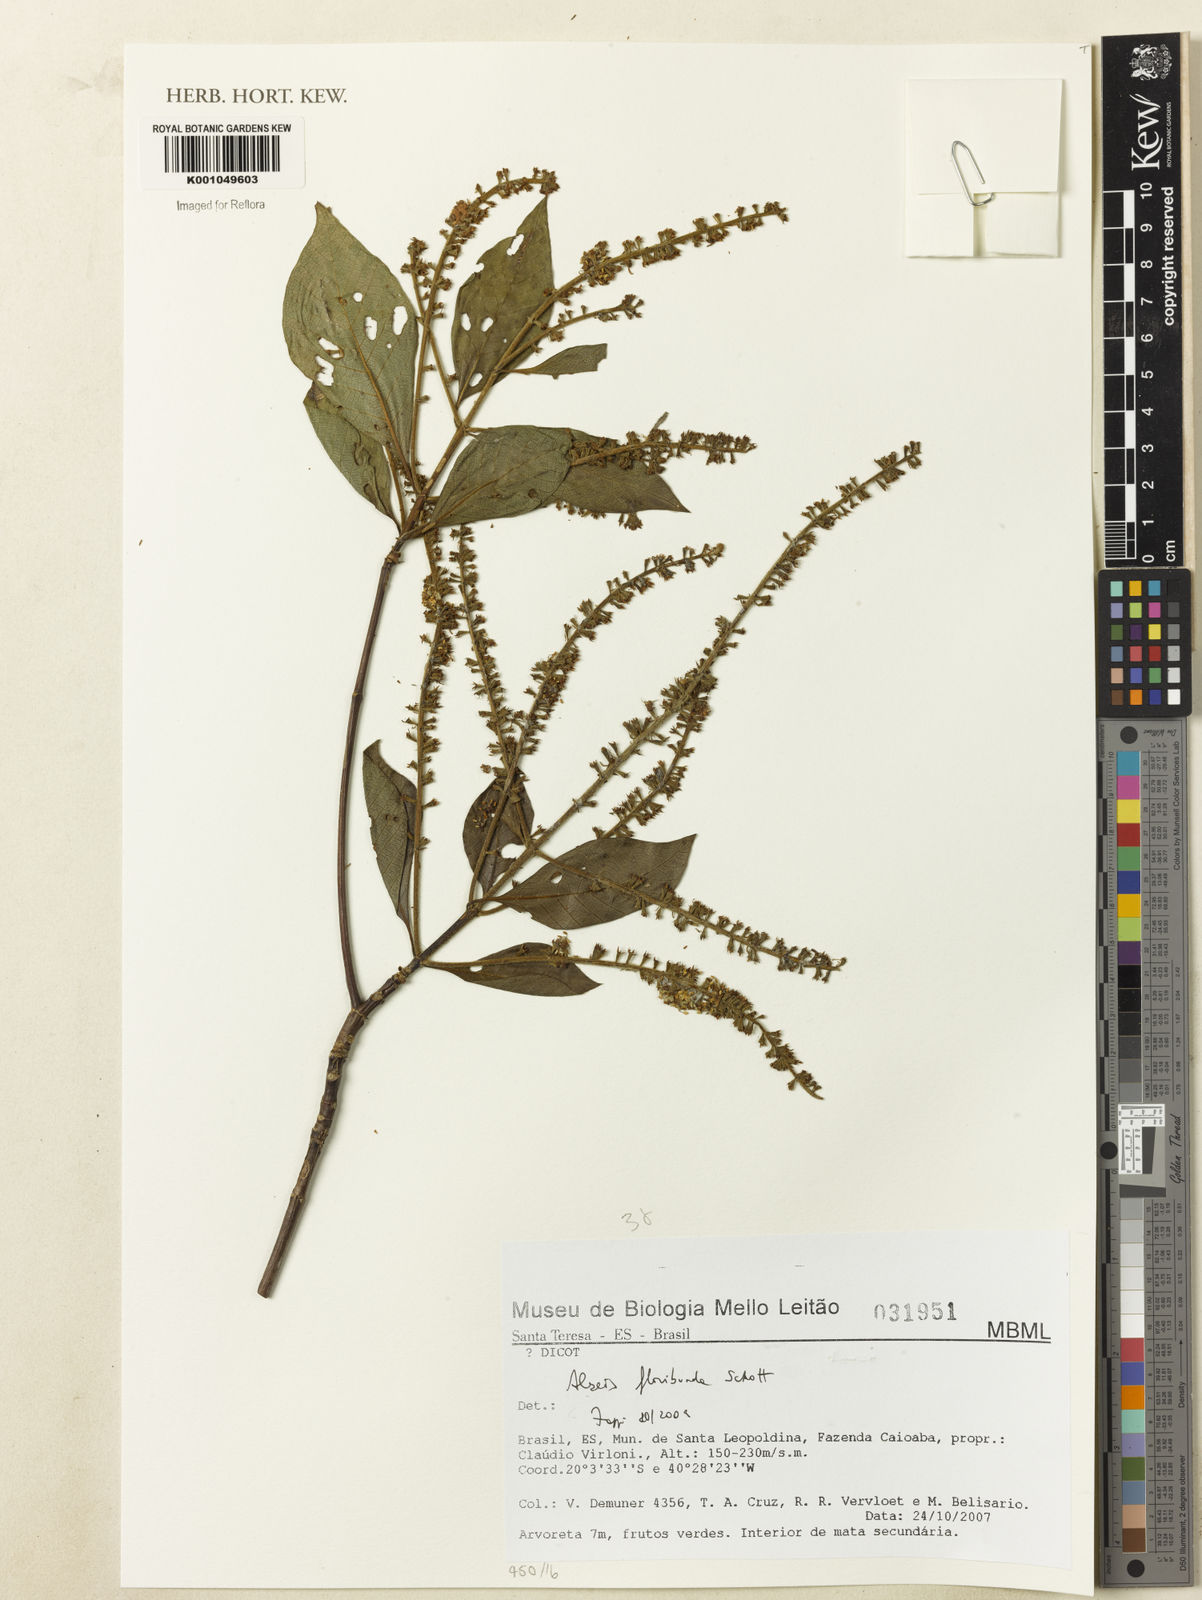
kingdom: Plantae
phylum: Tracheophyta
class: Magnoliopsida
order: Gentianales
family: Rubiaceae
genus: Alseis
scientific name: Alseis floribunda
